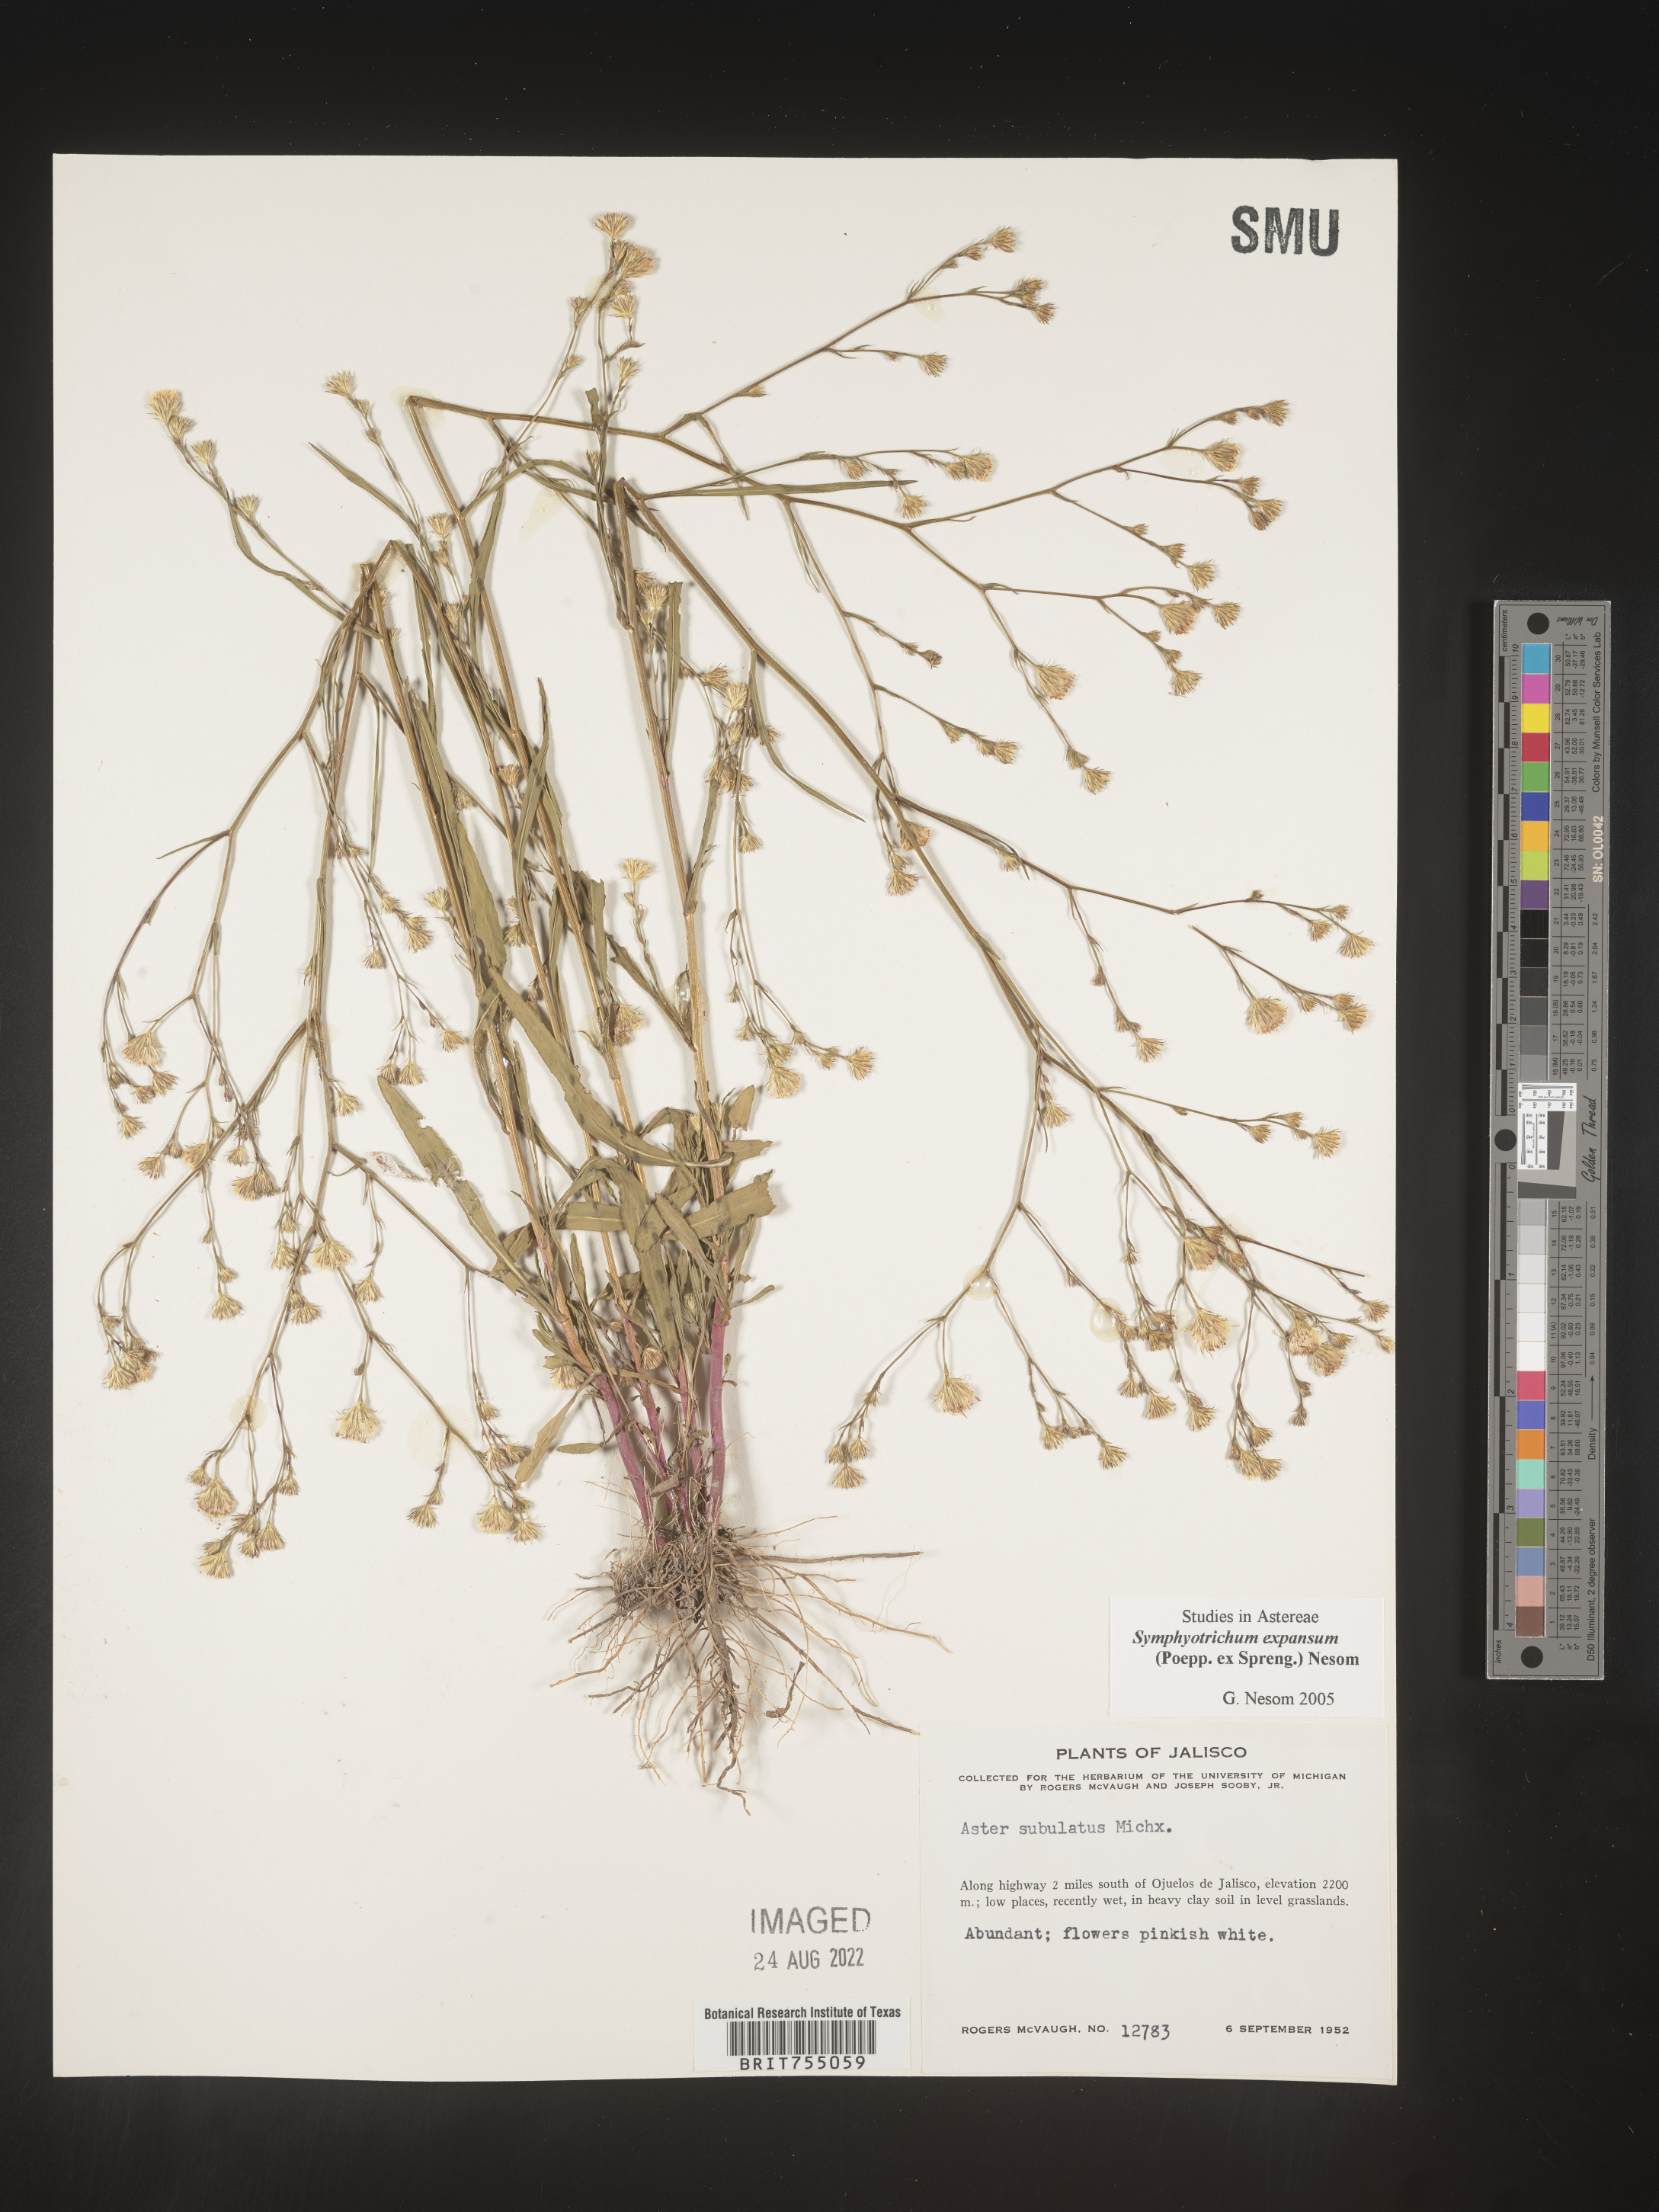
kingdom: Plantae
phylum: Tracheophyta
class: Magnoliopsida
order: Asterales
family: Asteraceae
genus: Symphyotrichum
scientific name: Symphyotrichum expansum
